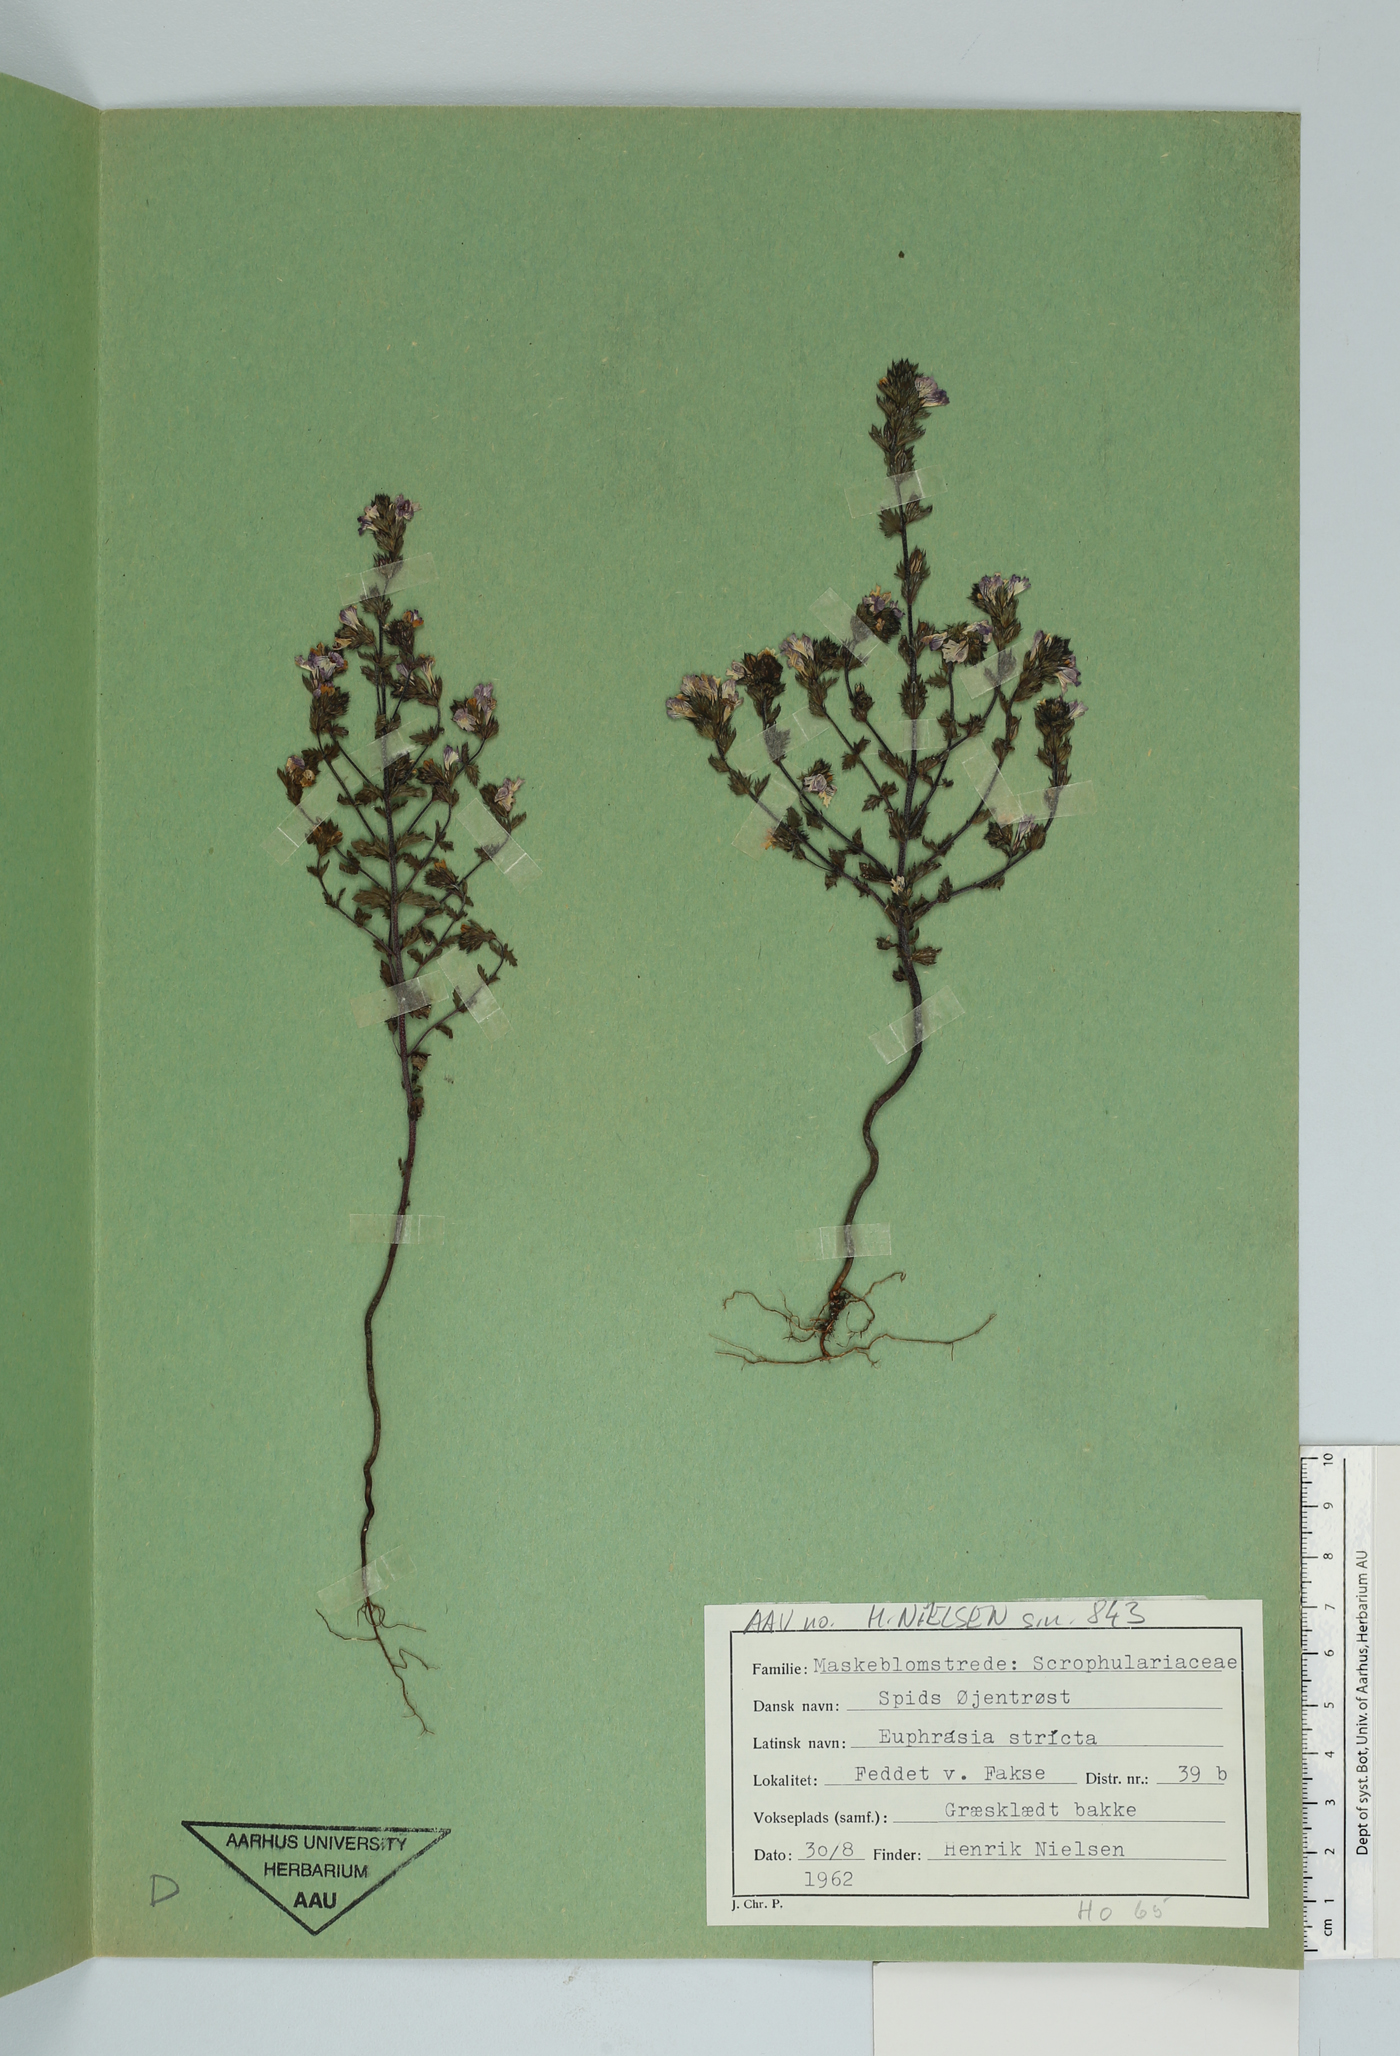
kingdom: Plantae
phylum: Tracheophyta
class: Magnoliopsida
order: Lamiales
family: Orobanchaceae
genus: Euphrasia
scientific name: Euphrasia stricta
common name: Drug eyebright
